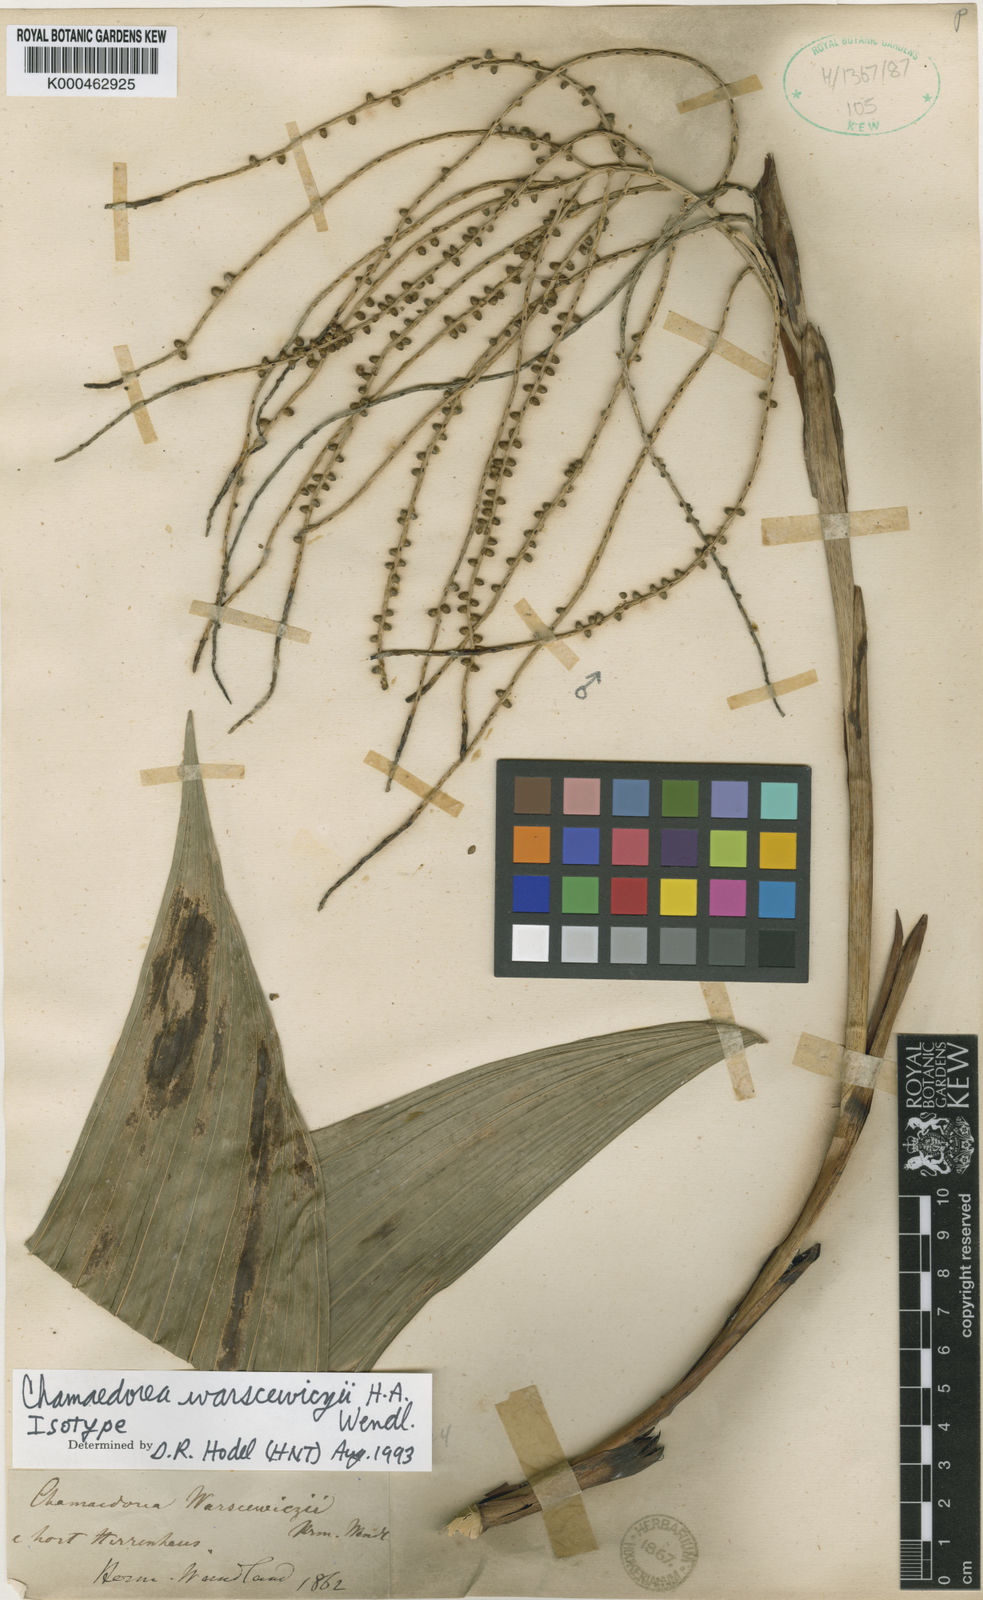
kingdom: Plantae
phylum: Tracheophyta
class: Liliopsida
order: Arecales
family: Arecaceae
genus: Chamaedorea
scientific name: Chamaedorea warscewiczii
